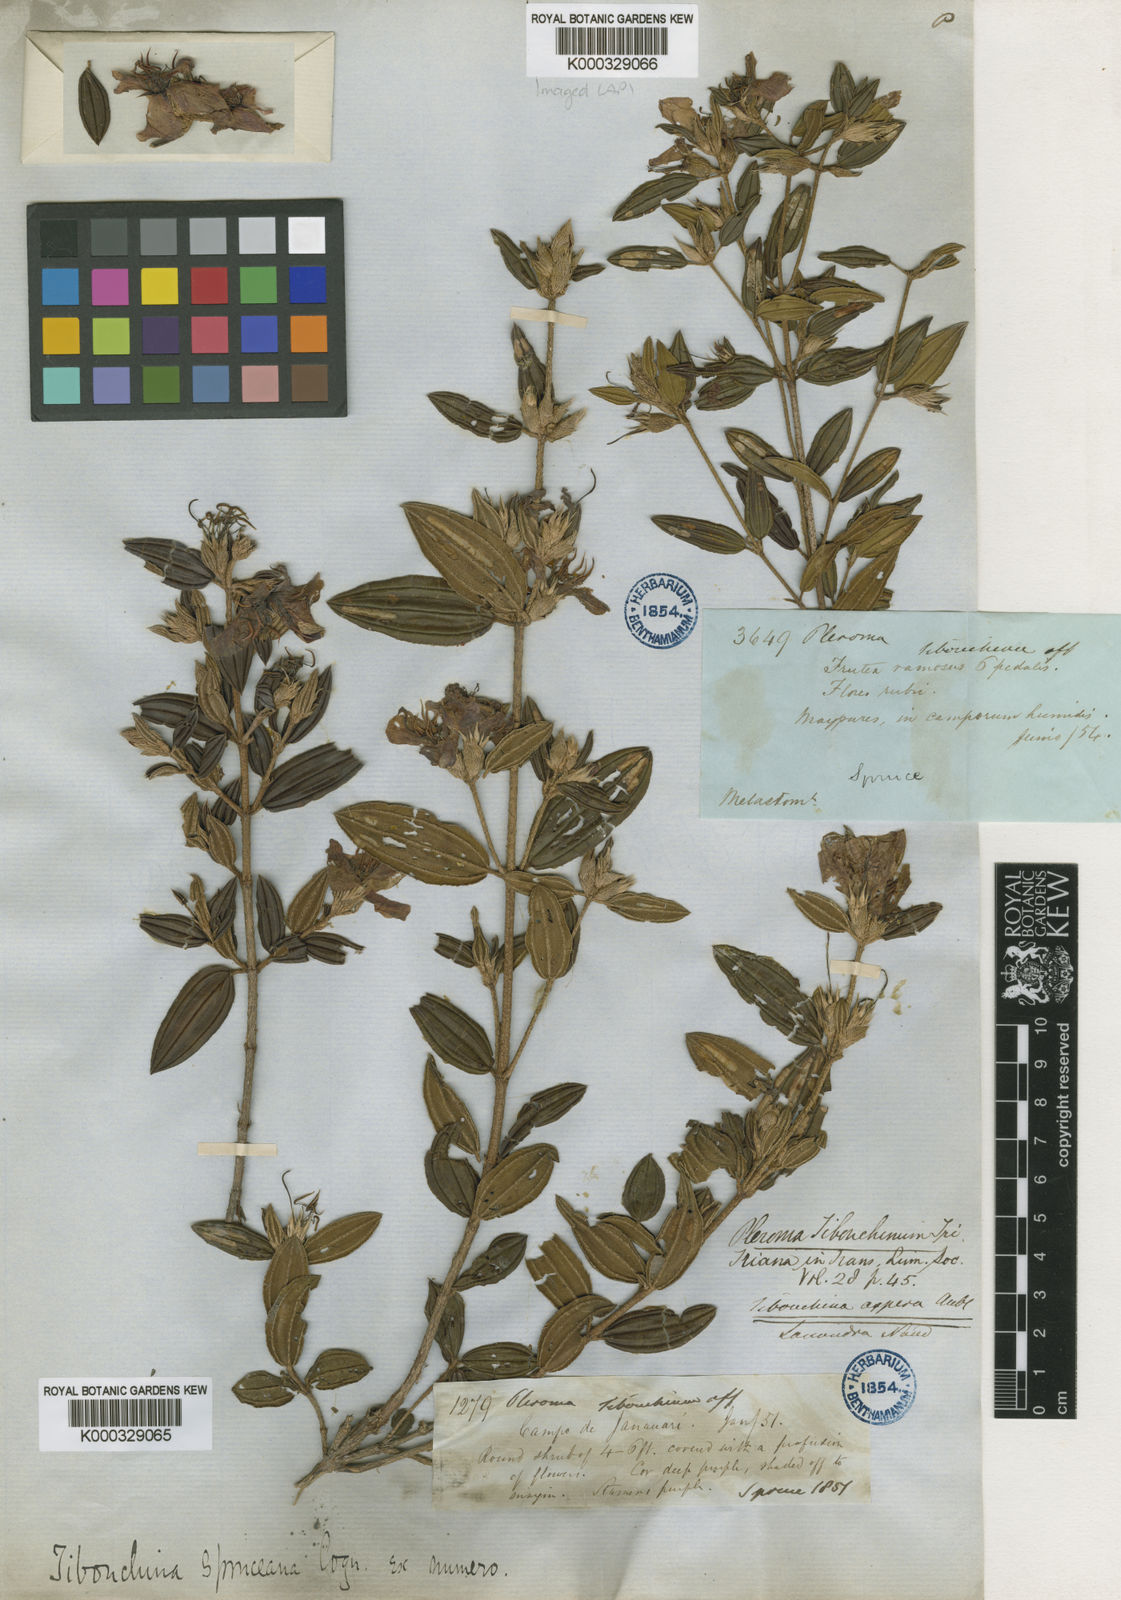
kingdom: Plantae
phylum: Tracheophyta
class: Magnoliopsida
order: Myrtales
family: Melastomataceae
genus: Tibouchina
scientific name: Tibouchina spruceana
